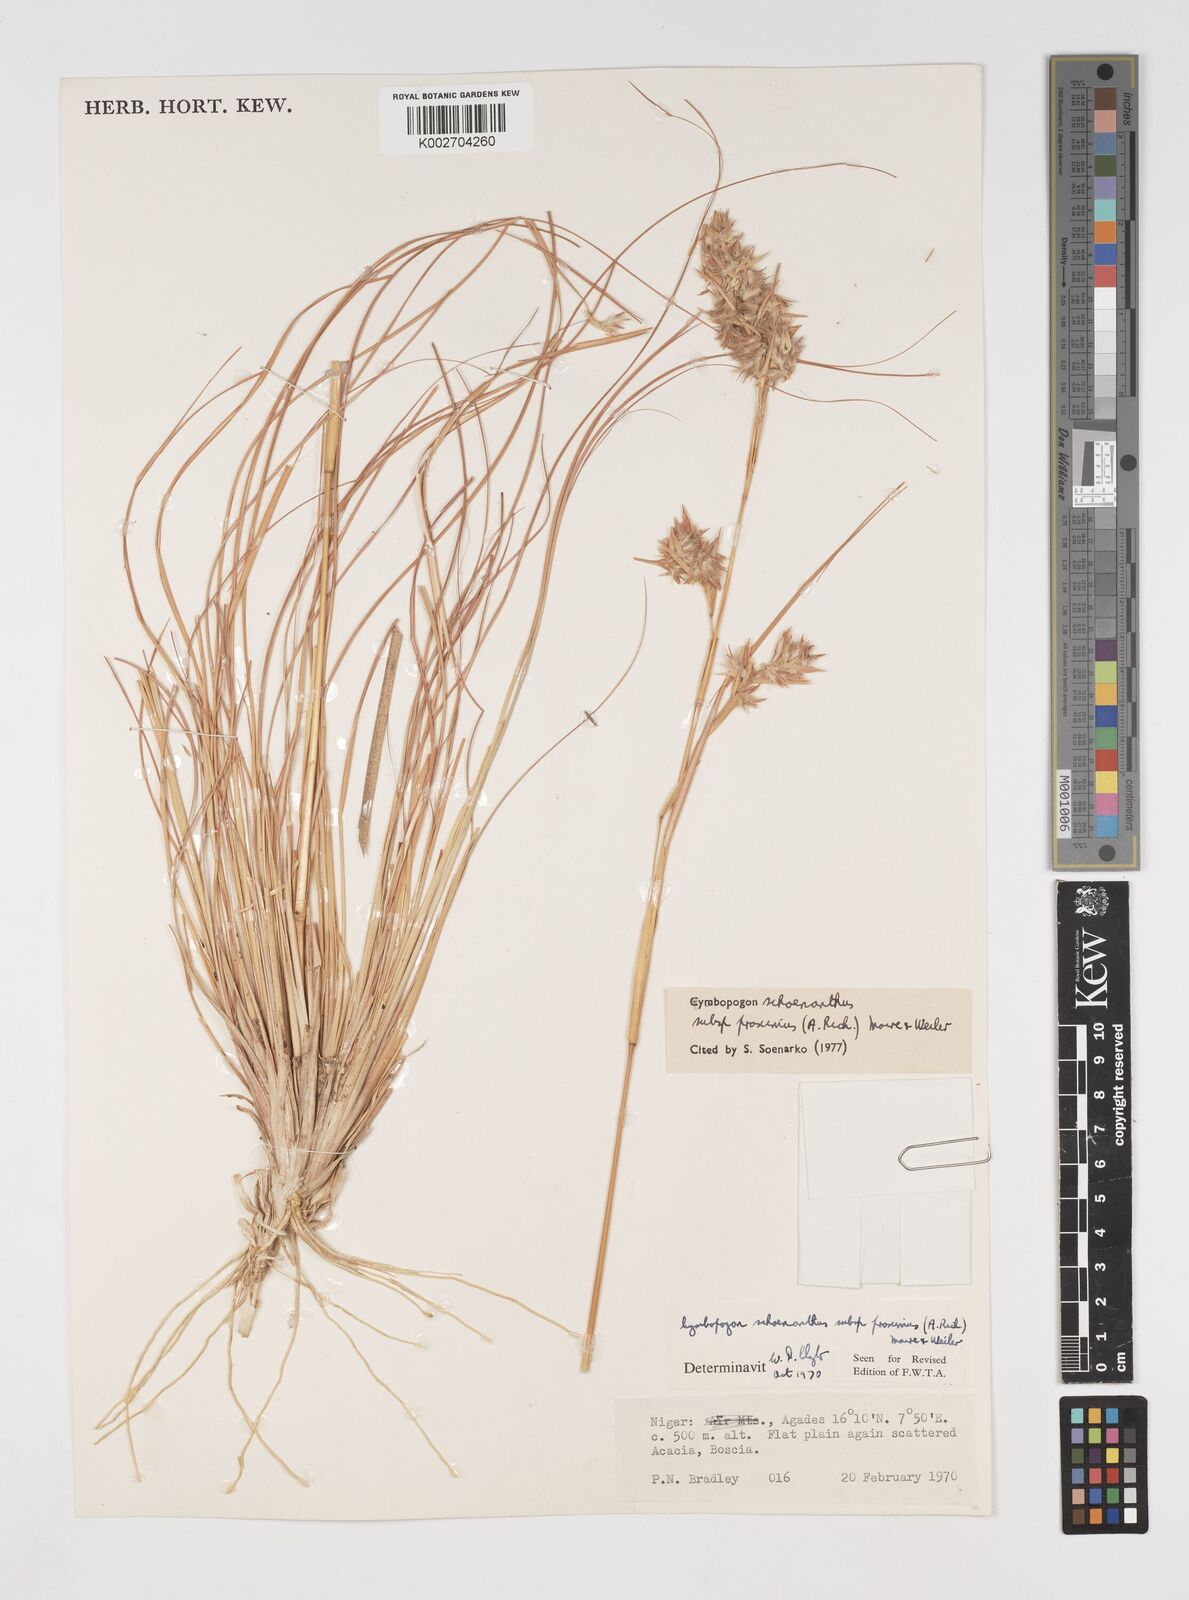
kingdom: Plantae
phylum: Tracheophyta
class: Liliopsida
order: Poales
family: Poaceae
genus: Cymbopogon
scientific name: Cymbopogon schoenanthus
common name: Geranium grass
